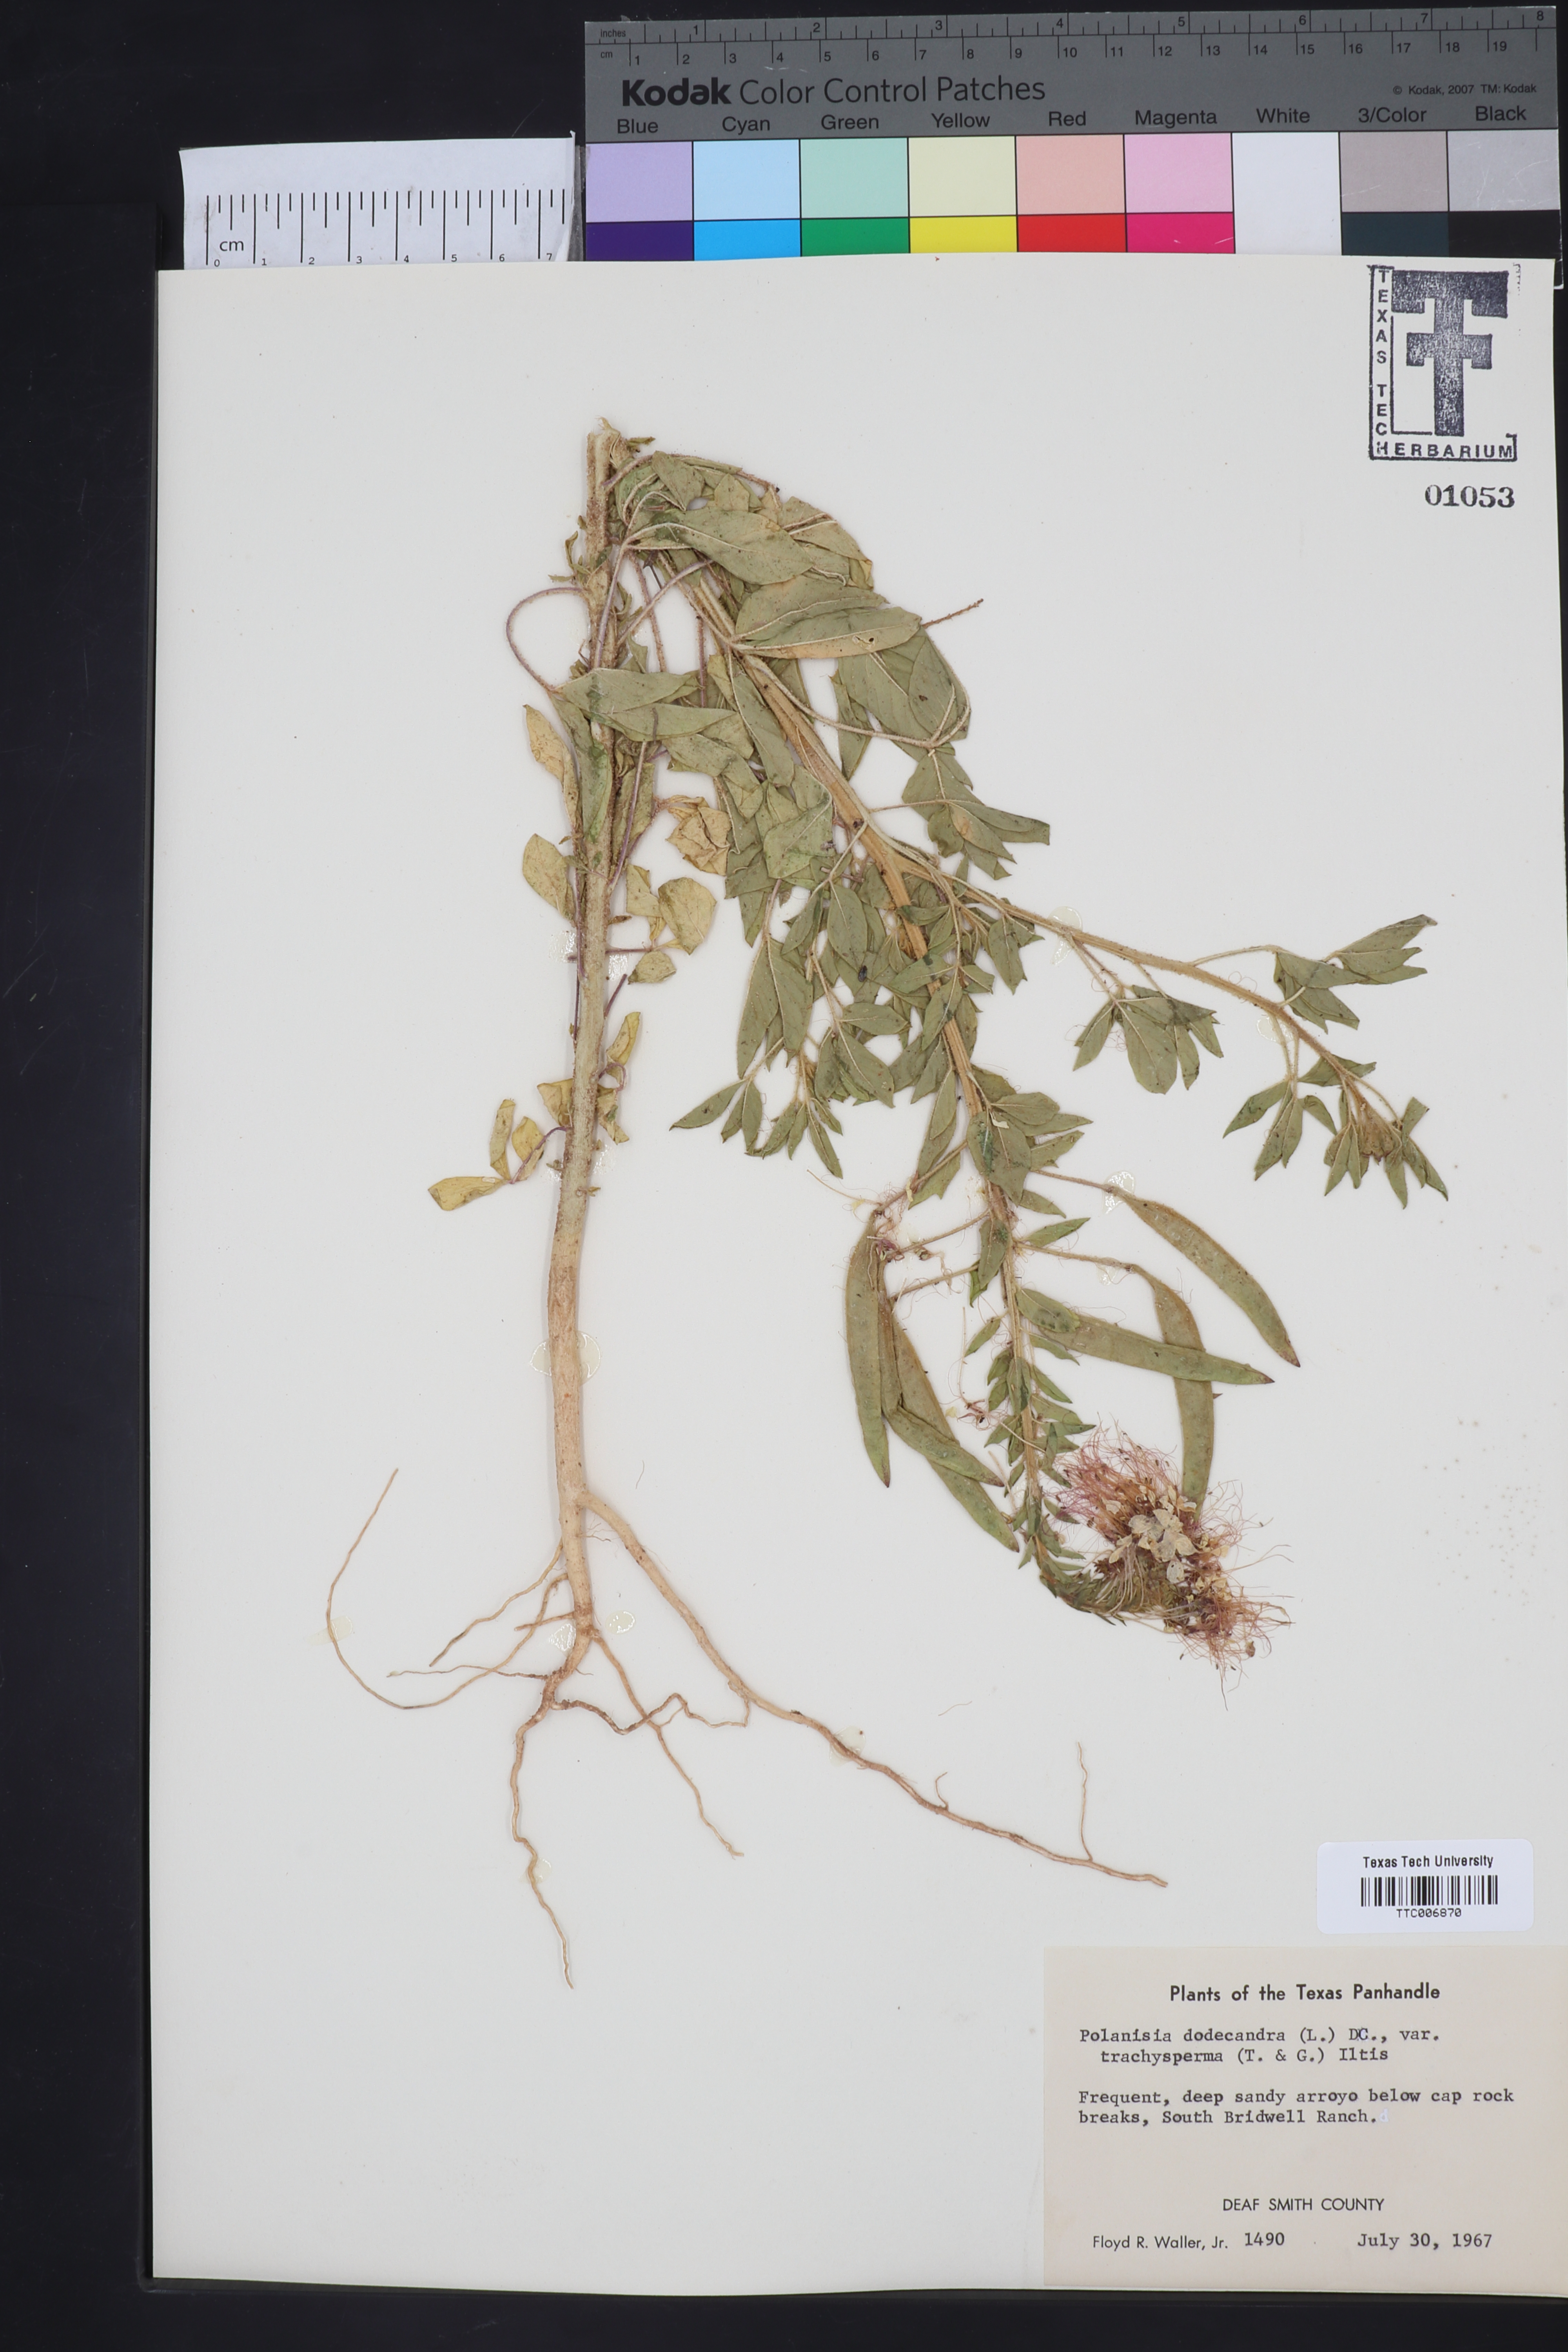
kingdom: Plantae
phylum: Tracheophyta
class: Magnoliopsida
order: Brassicales
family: Cleomaceae
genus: Polanisia
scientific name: Polanisia trachysperma
